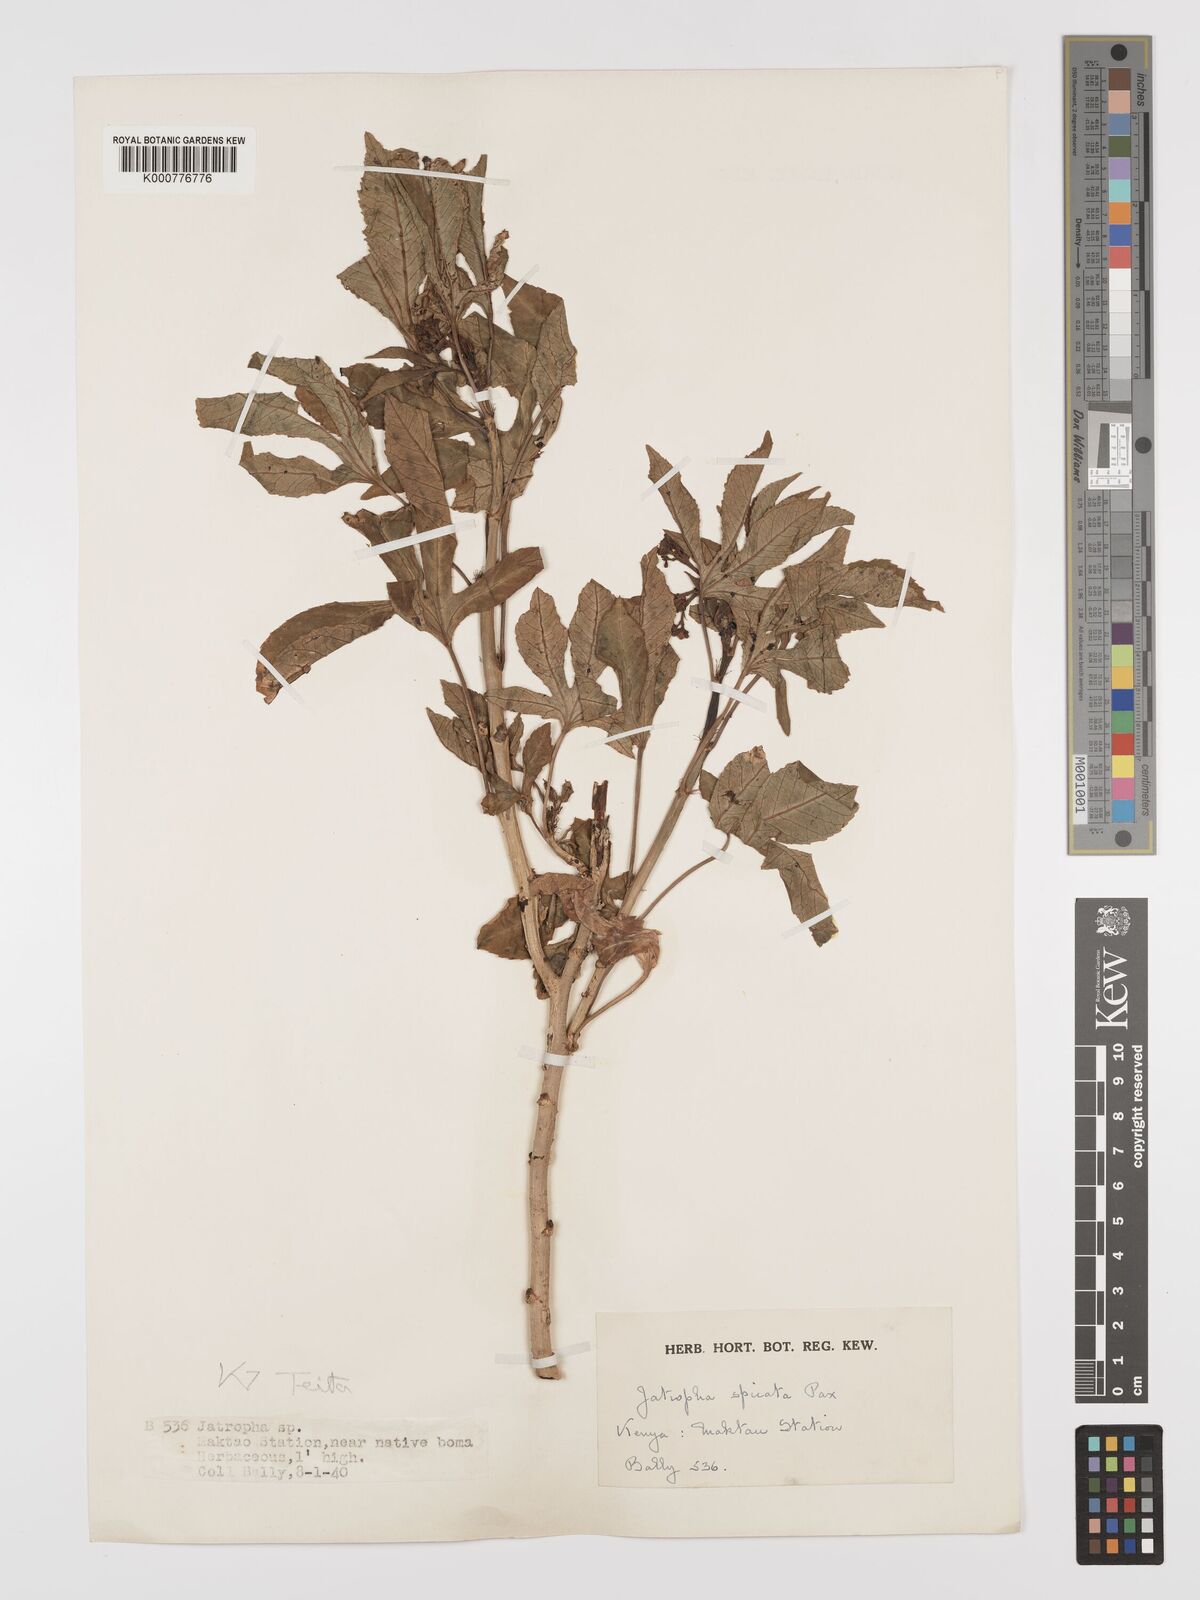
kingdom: Plantae
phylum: Tracheophyta
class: Magnoliopsida
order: Malpighiales
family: Euphorbiaceae
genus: Jatropha
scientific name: Jatropha spicata
